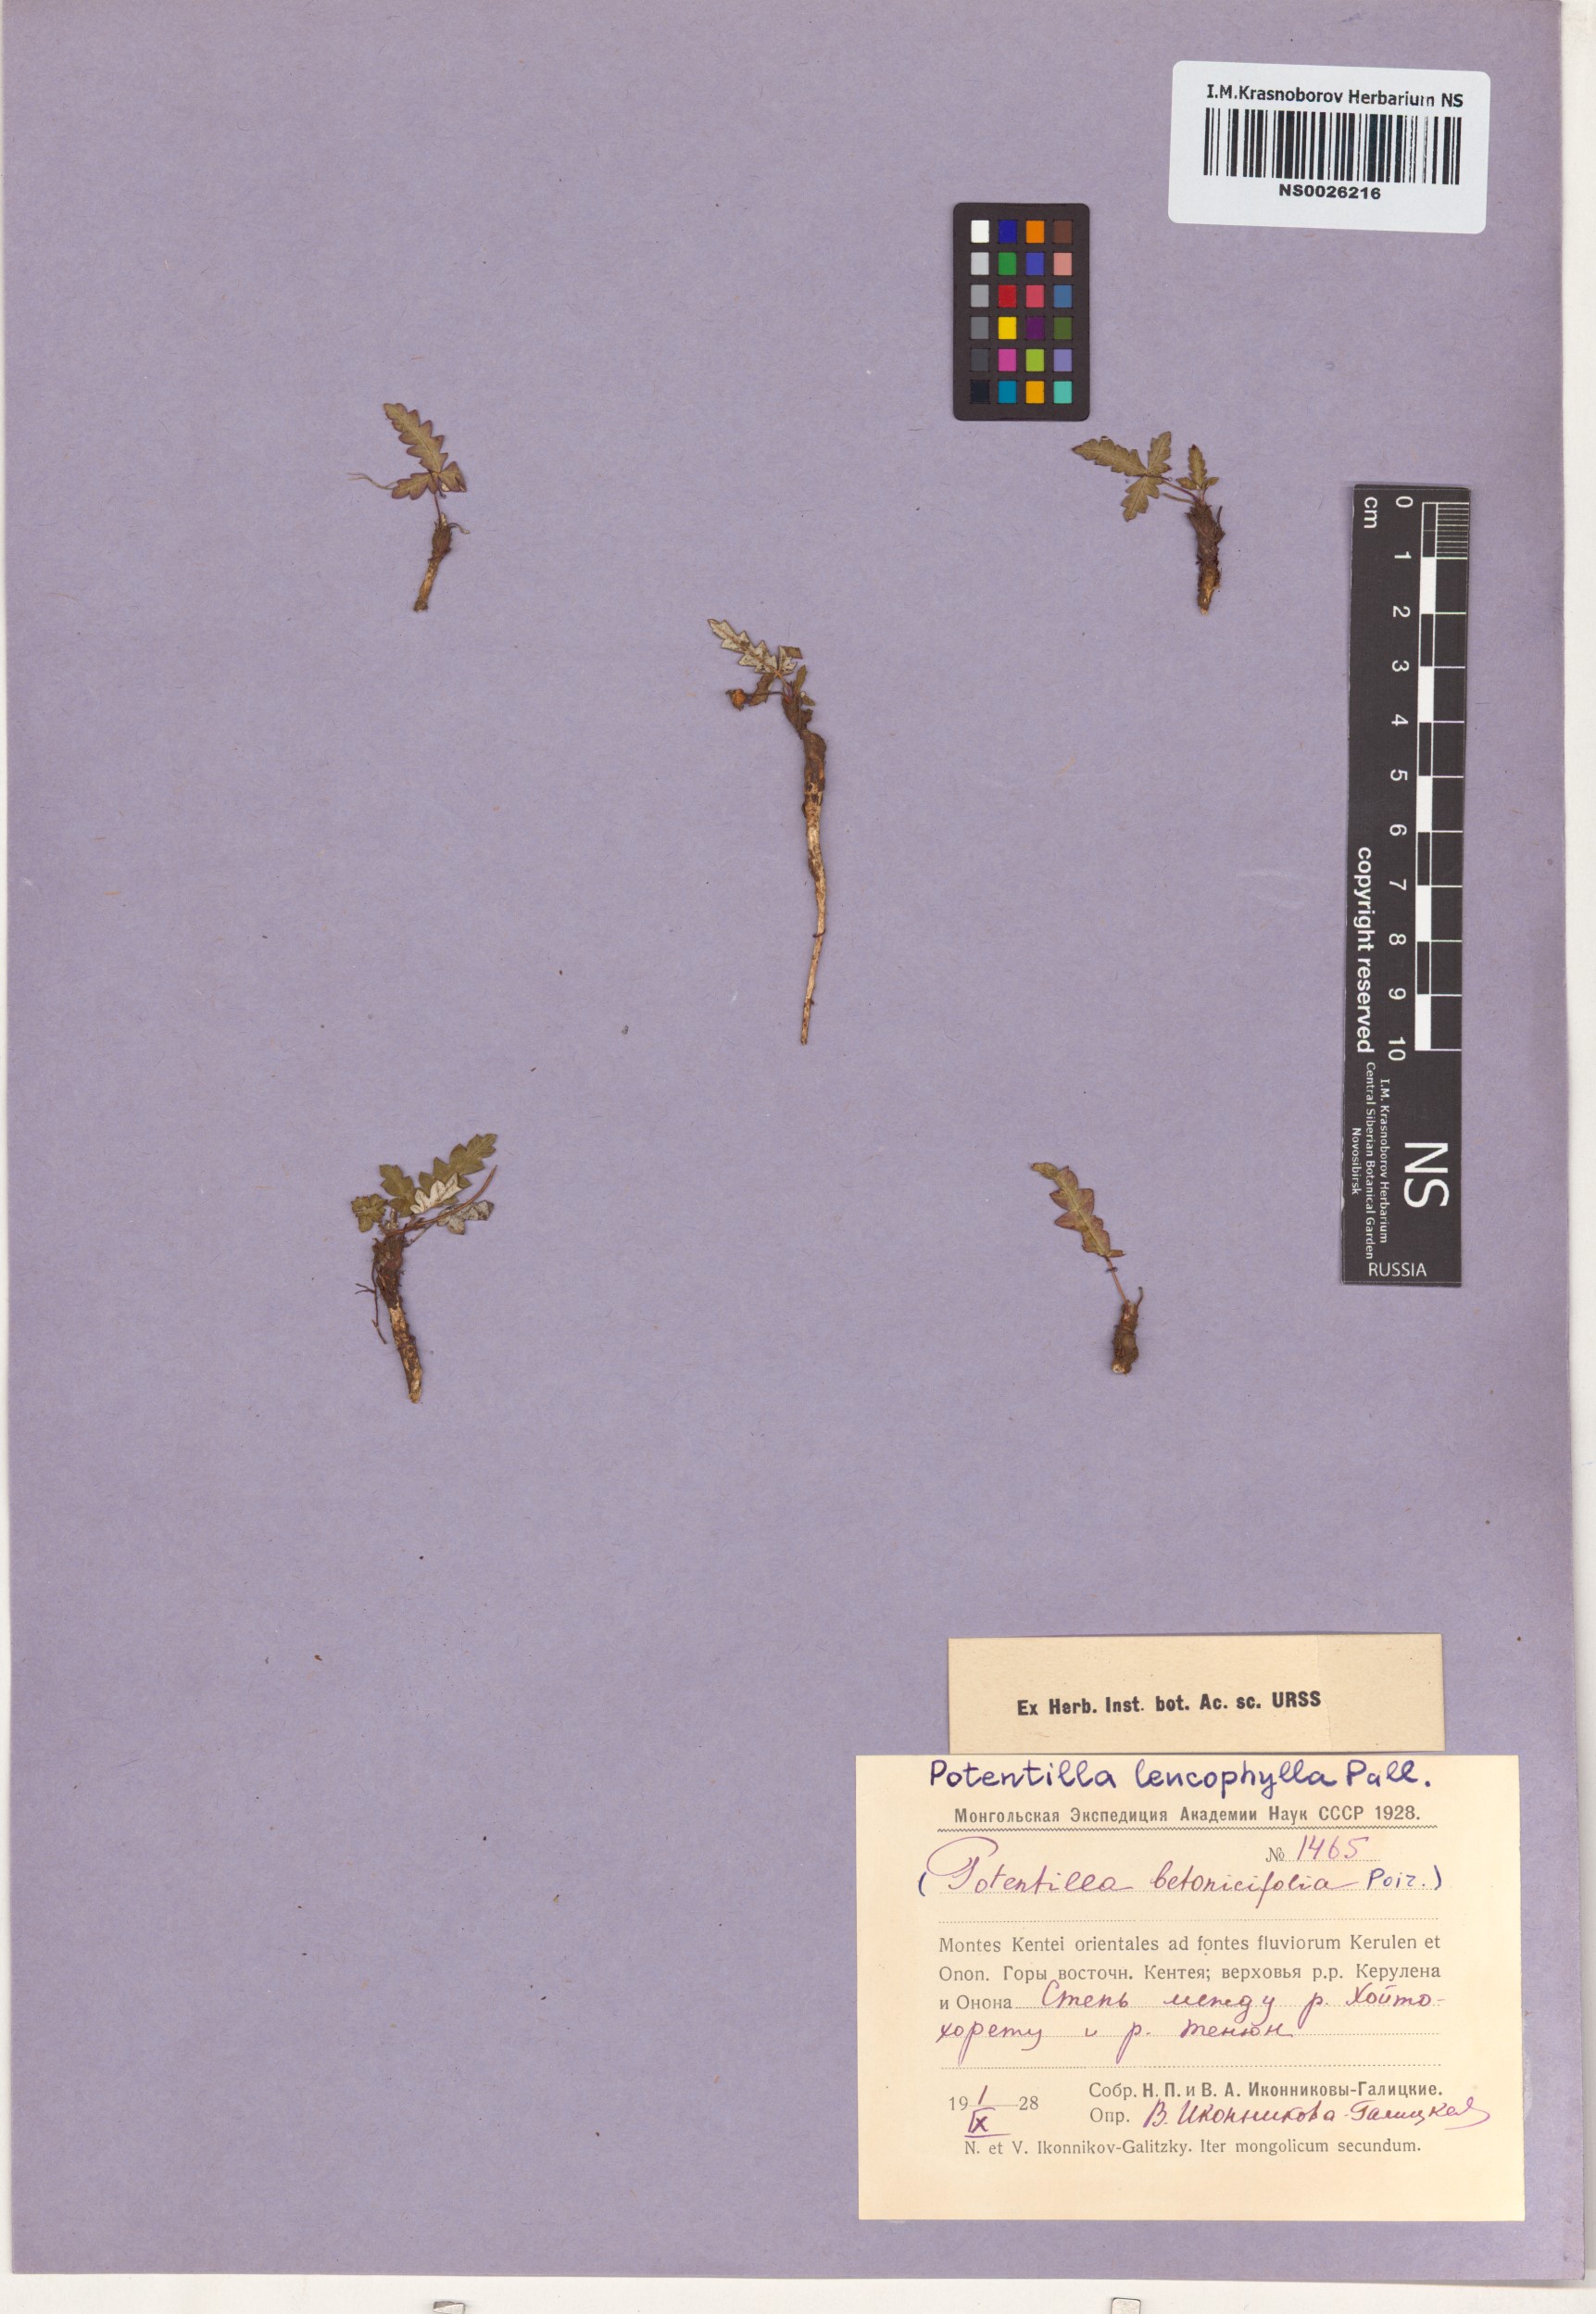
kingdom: Plantae
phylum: Tracheophyta
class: Magnoliopsida
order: Rosales
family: Rosaceae
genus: Potentilla
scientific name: Potentilla leucophylla
